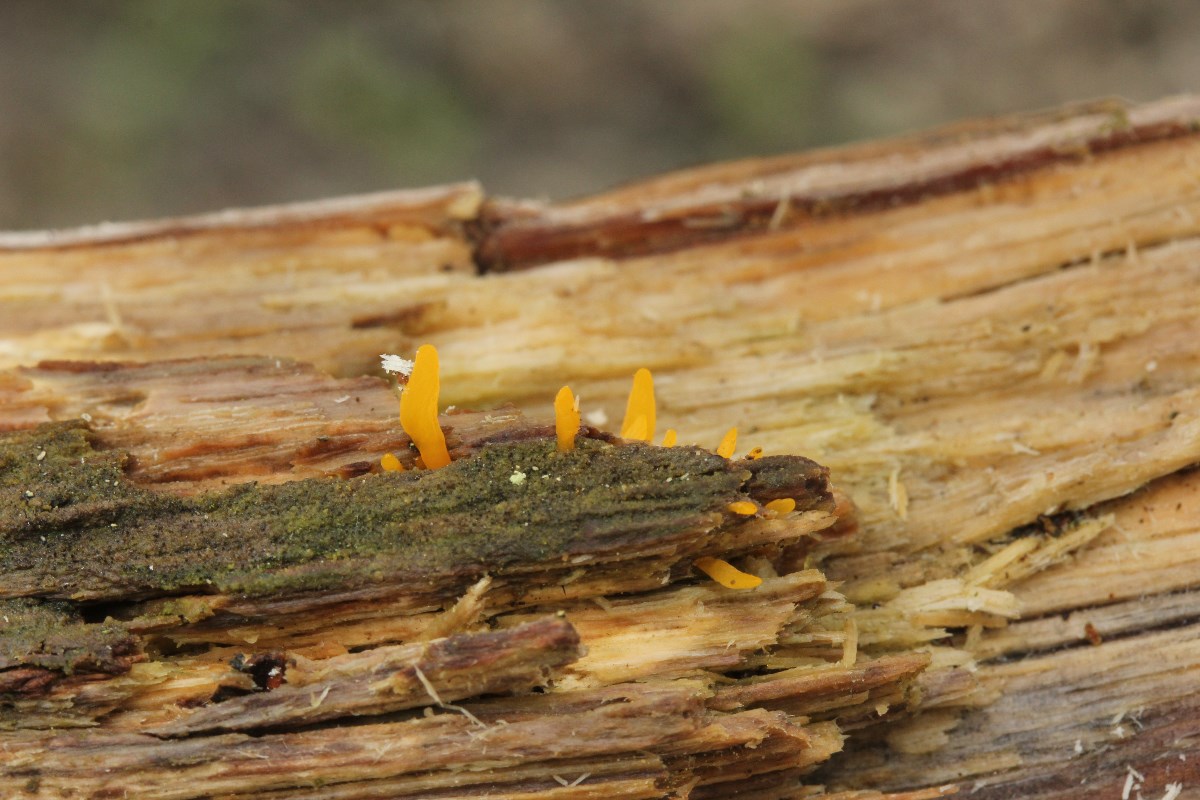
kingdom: Fungi
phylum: Basidiomycota
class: Dacrymycetes
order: Dacrymycetales
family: Dacrymycetaceae
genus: Calocera
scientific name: Calocera cornea
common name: liden guldgaffel
